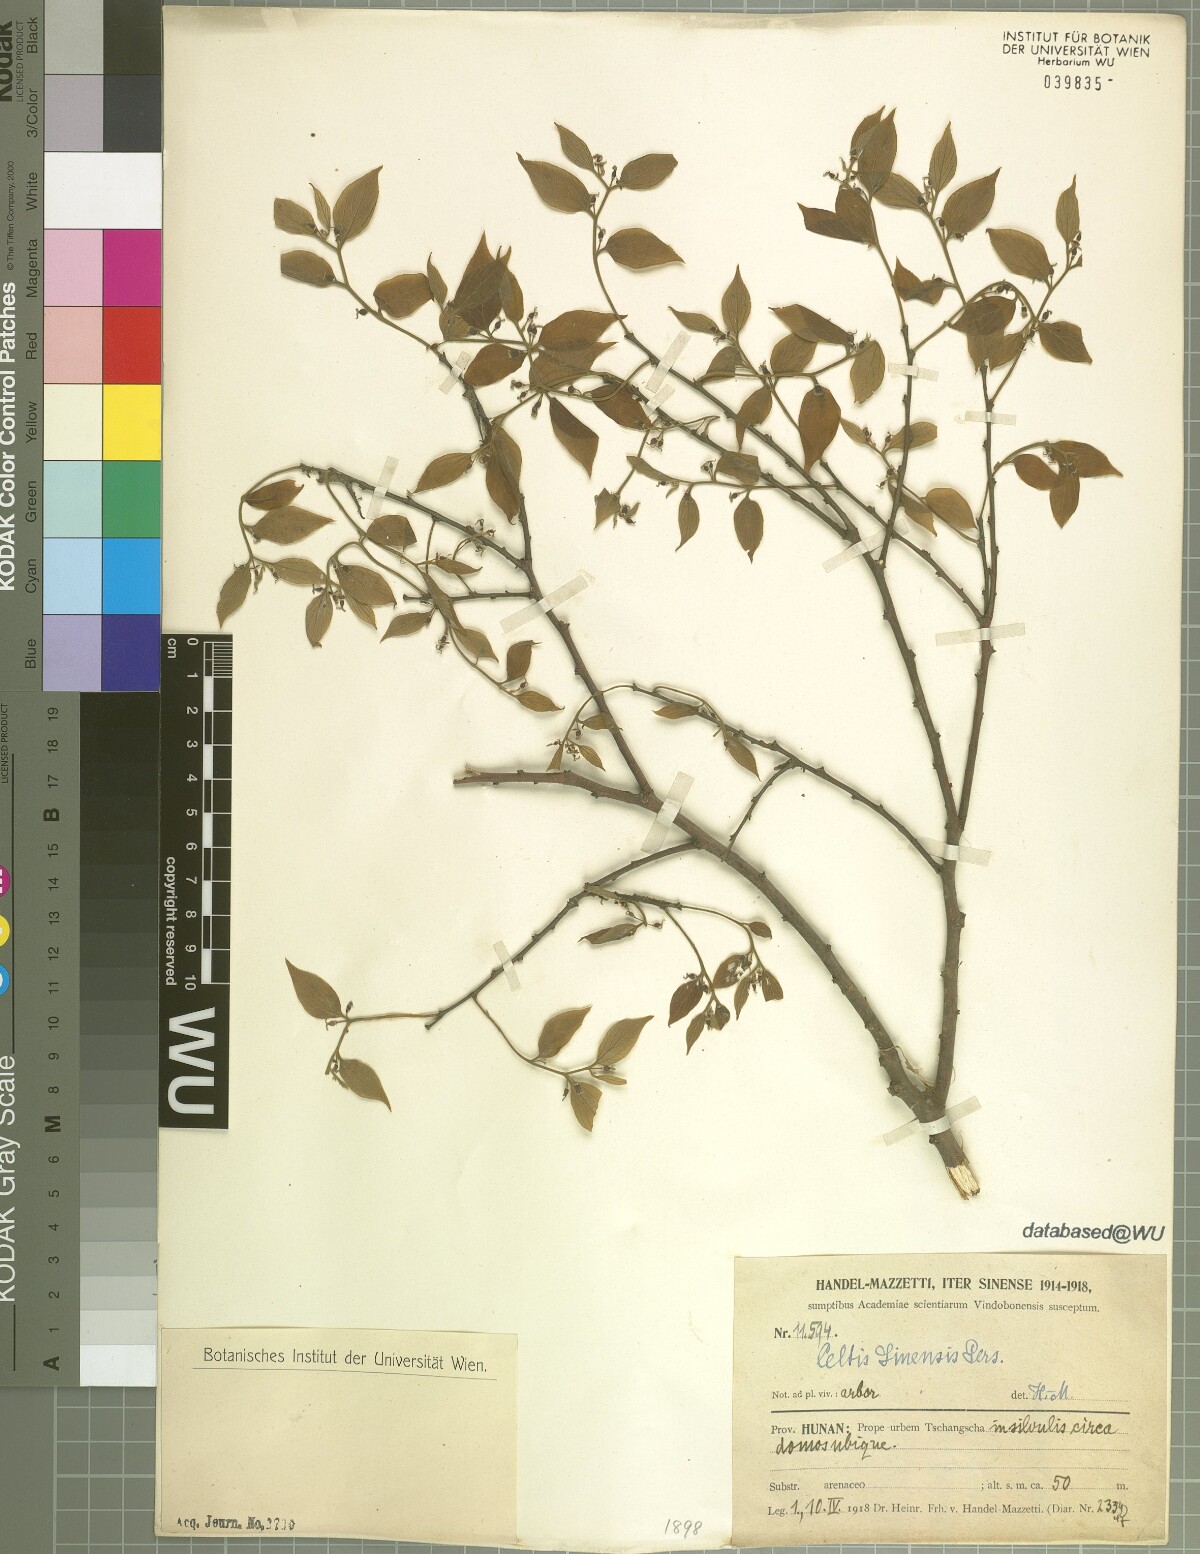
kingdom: Plantae
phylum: Tracheophyta
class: Magnoliopsida
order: Rosales
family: Cannabaceae
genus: Celtis
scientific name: Celtis sinensis
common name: Chinese hackberry
